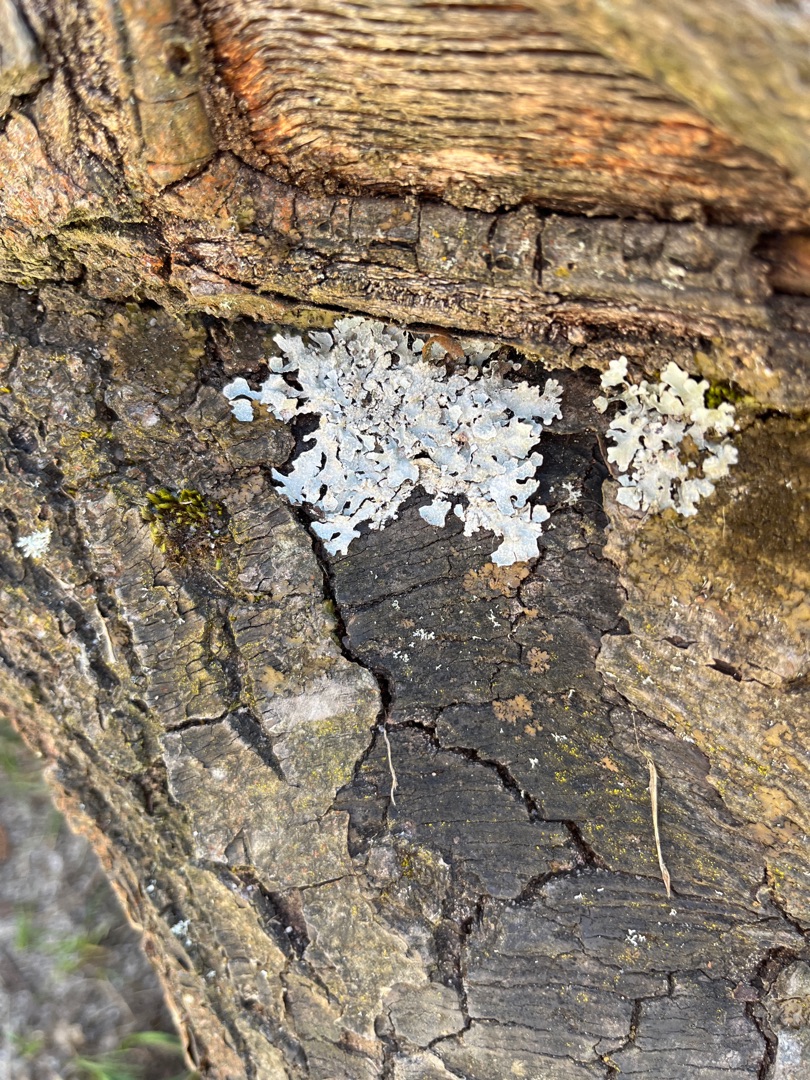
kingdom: Fungi
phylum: Ascomycota
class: Lecanoromycetes
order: Lecanorales
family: Parmeliaceae
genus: Parmelia
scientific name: Parmelia sulcata
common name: Rynket skållav
